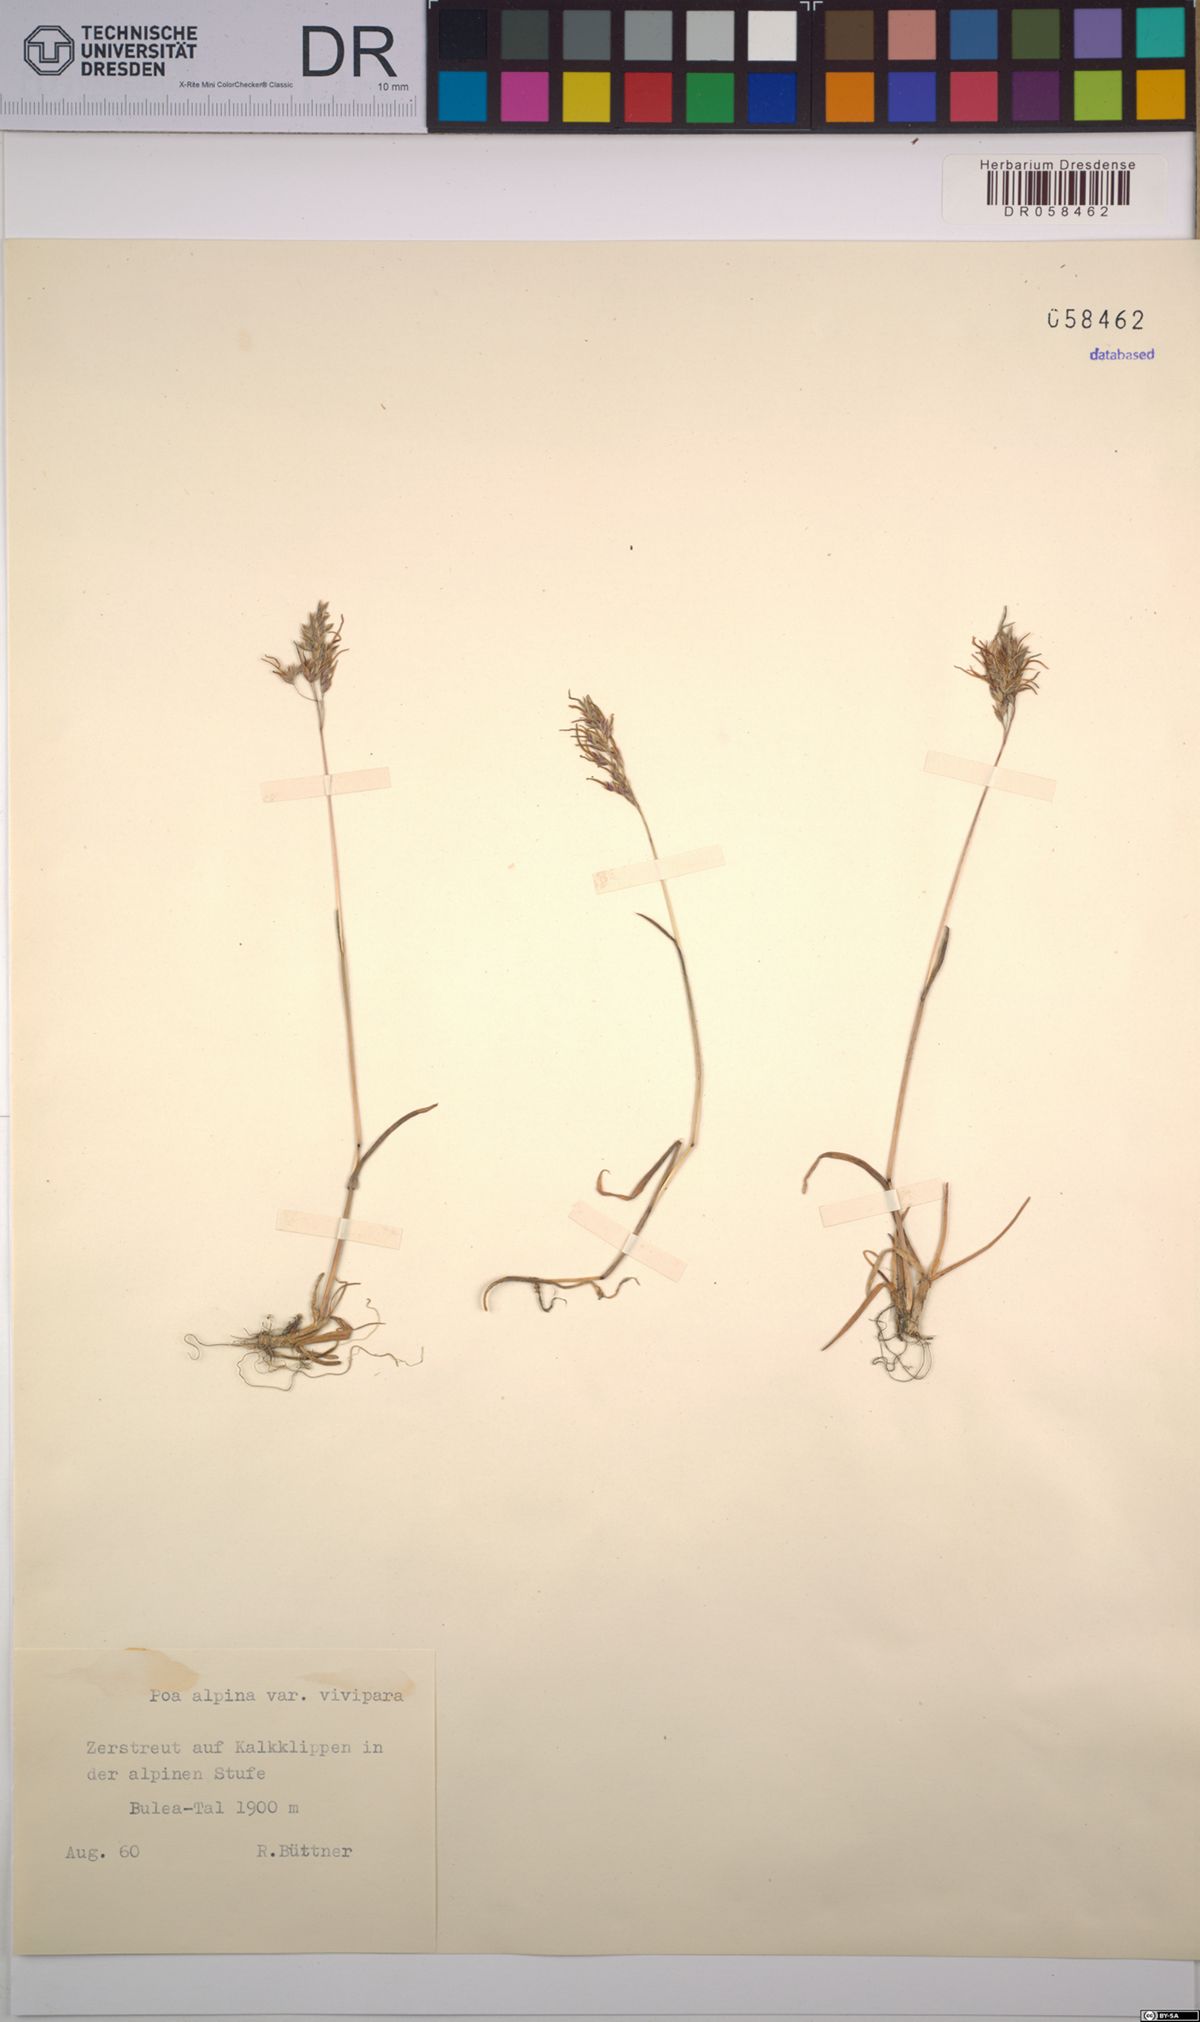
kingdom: Plantae
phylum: Tracheophyta
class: Liliopsida
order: Poales
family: Poaceae
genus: Poa
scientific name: Poa alpina
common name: Alpine bluegrass
